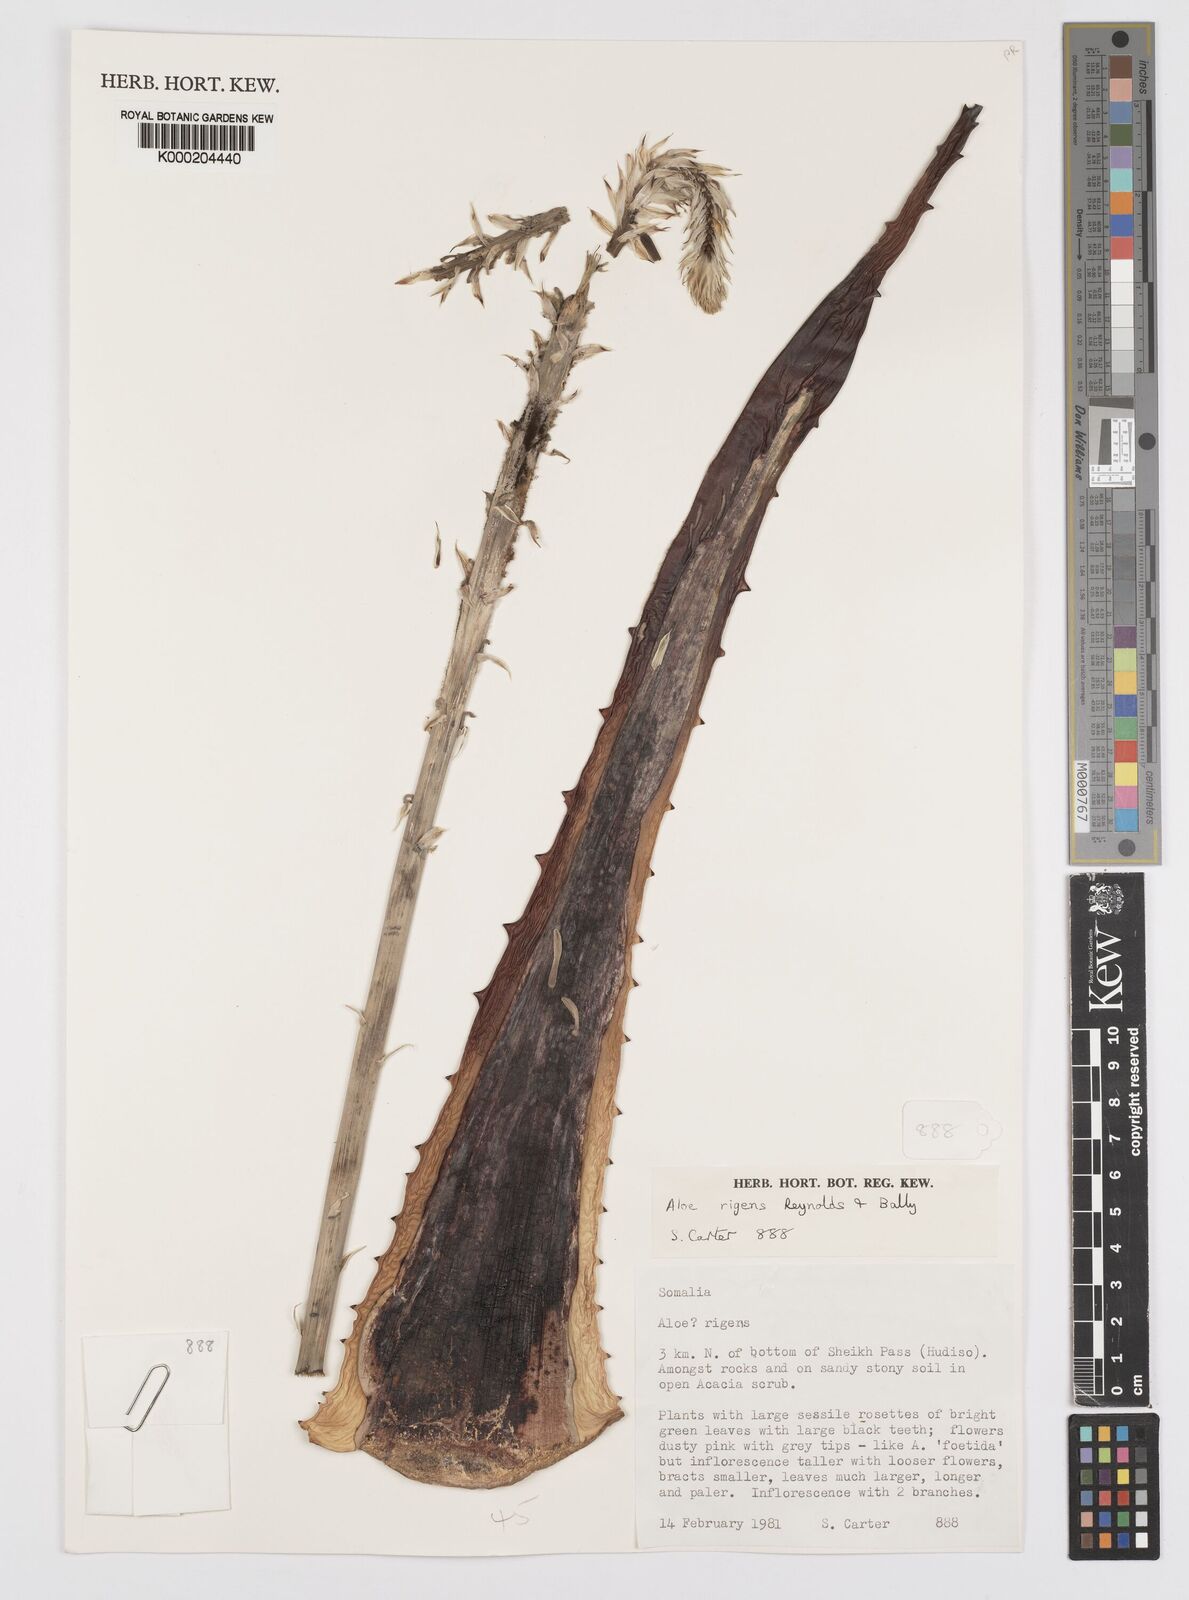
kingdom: Plantae
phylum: Tracheophyta
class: Liliopsida
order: Asparagales
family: Asphodelaceae
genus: Aloe
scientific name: Aloe rigens
